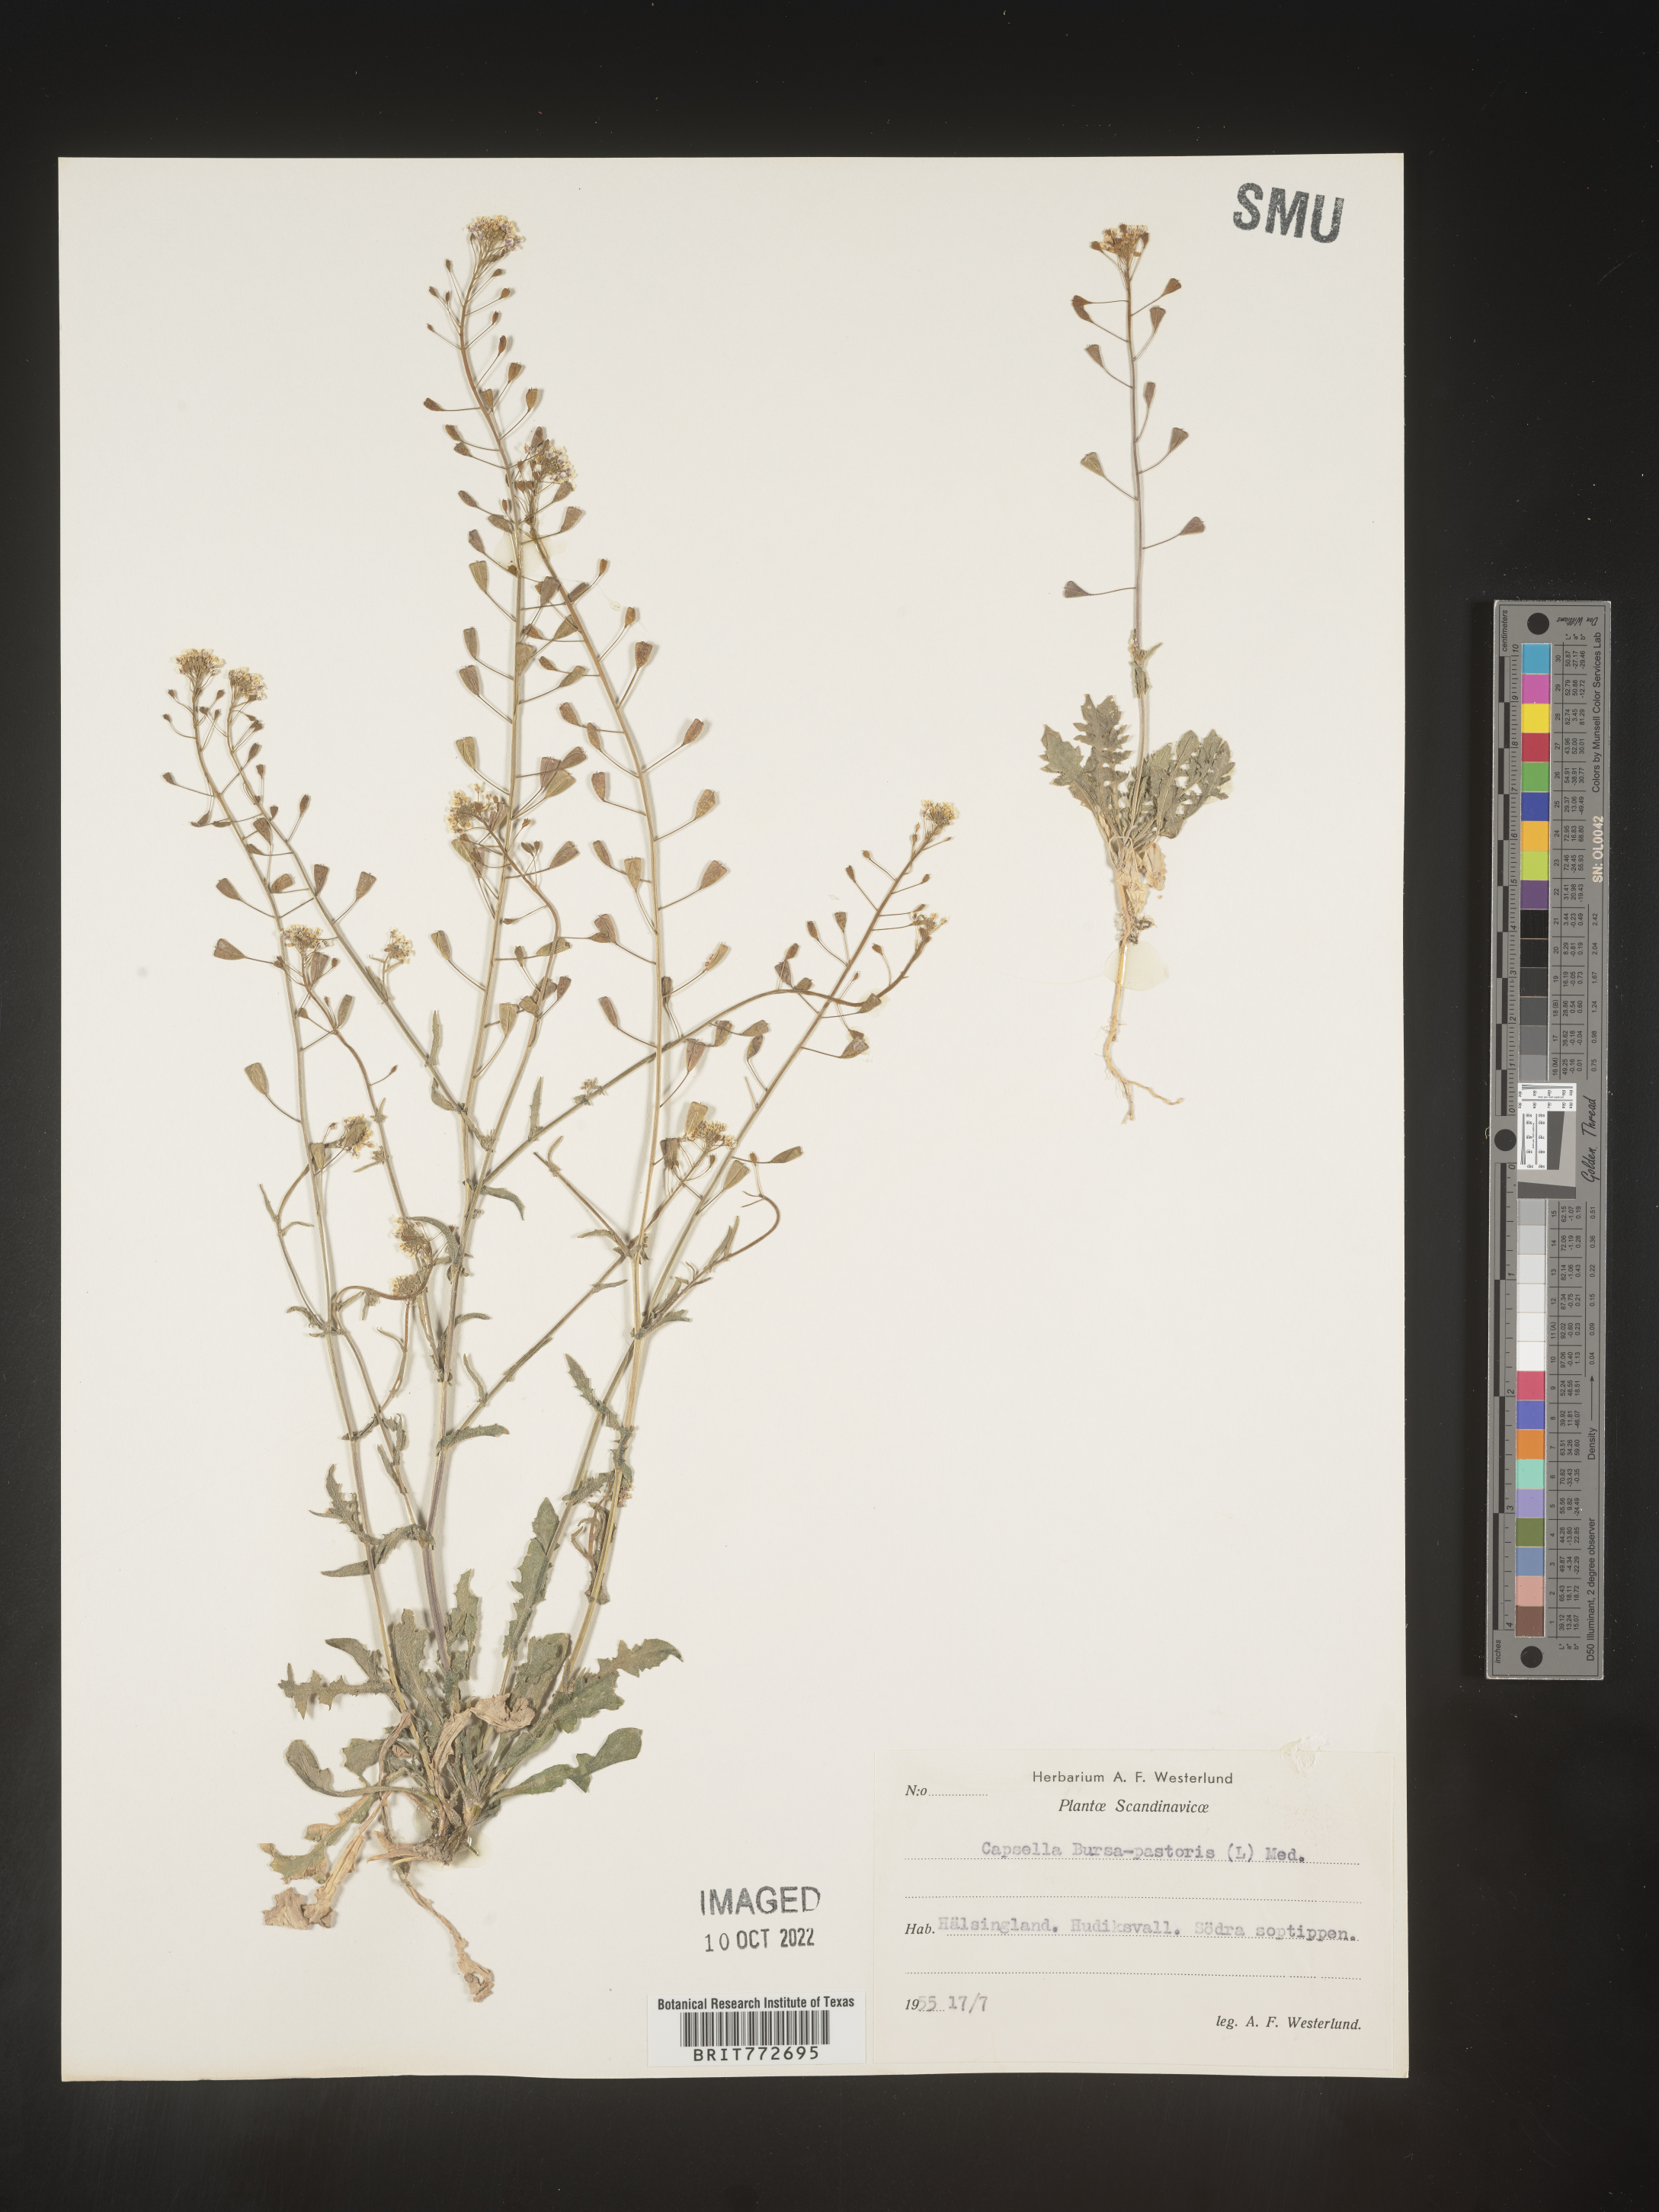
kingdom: Plantae
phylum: Tracheophyta
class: Magnoliopsida
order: Brassicales
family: Brassicaceae
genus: Capsella
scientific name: Capsella
